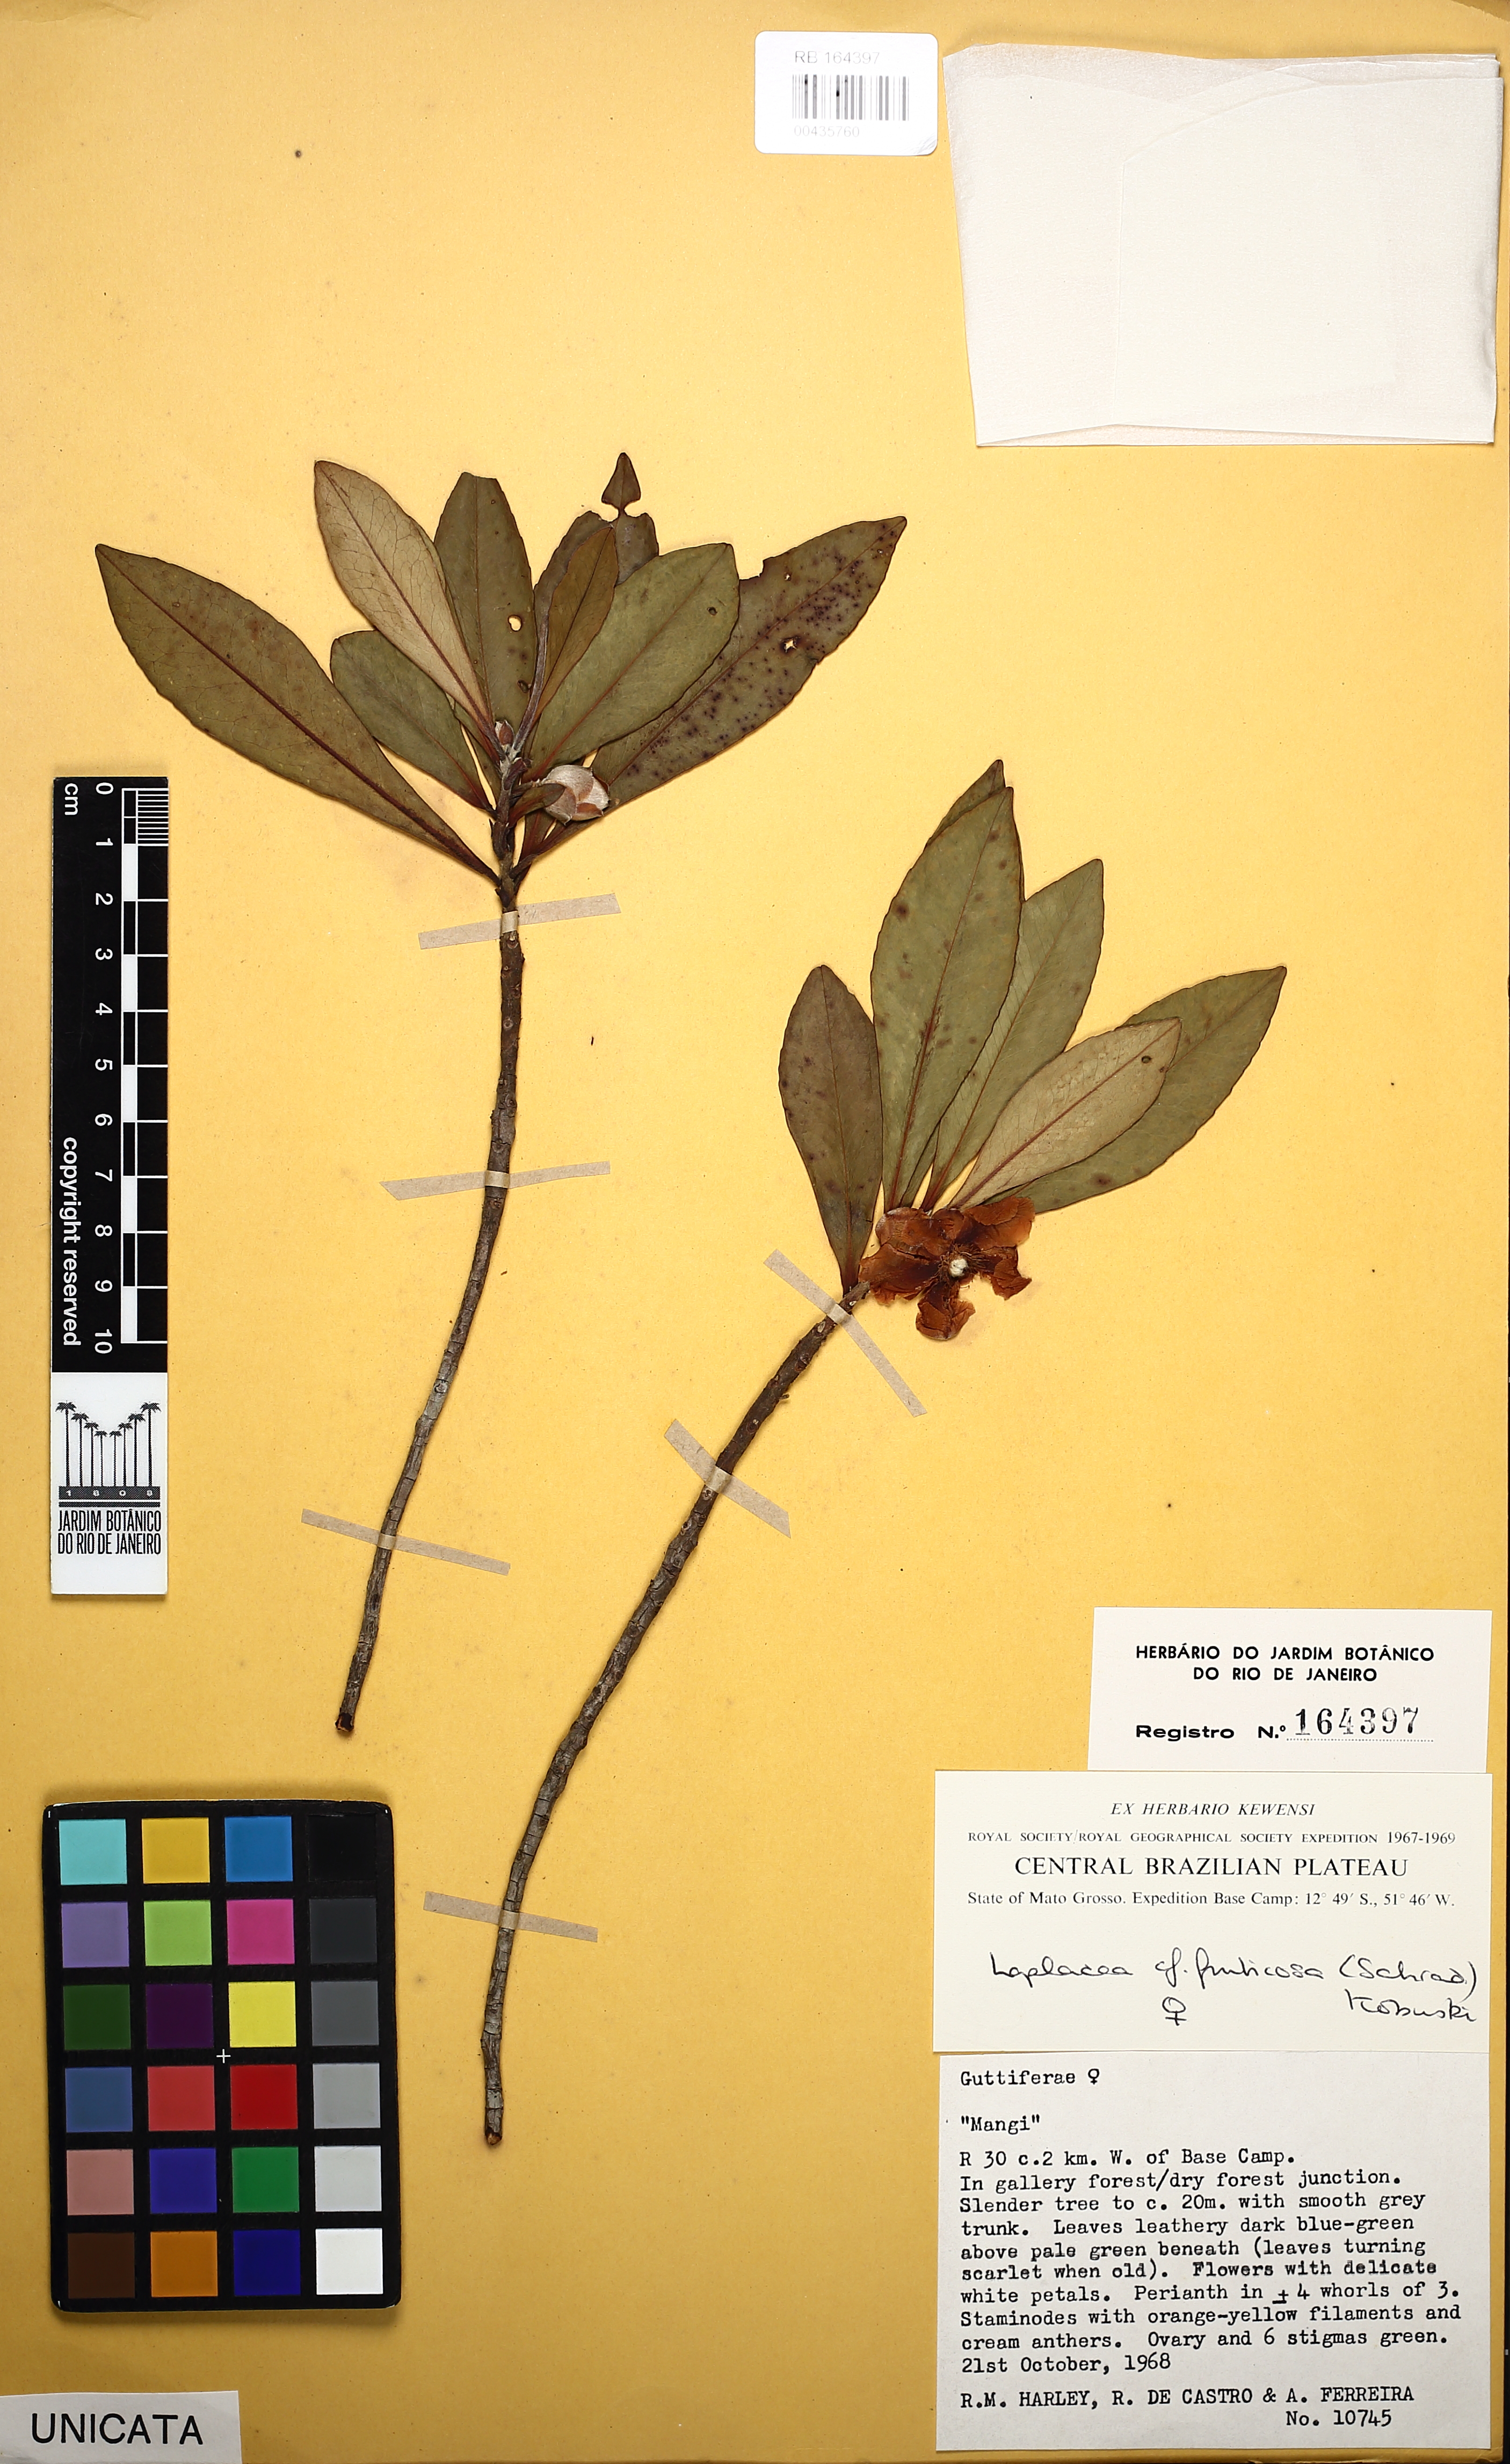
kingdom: Plantae
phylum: Tracheophyta
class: Magnoliopsida
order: Ericales
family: Theaceae
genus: Gordonia
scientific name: Gordonia fruticosa
